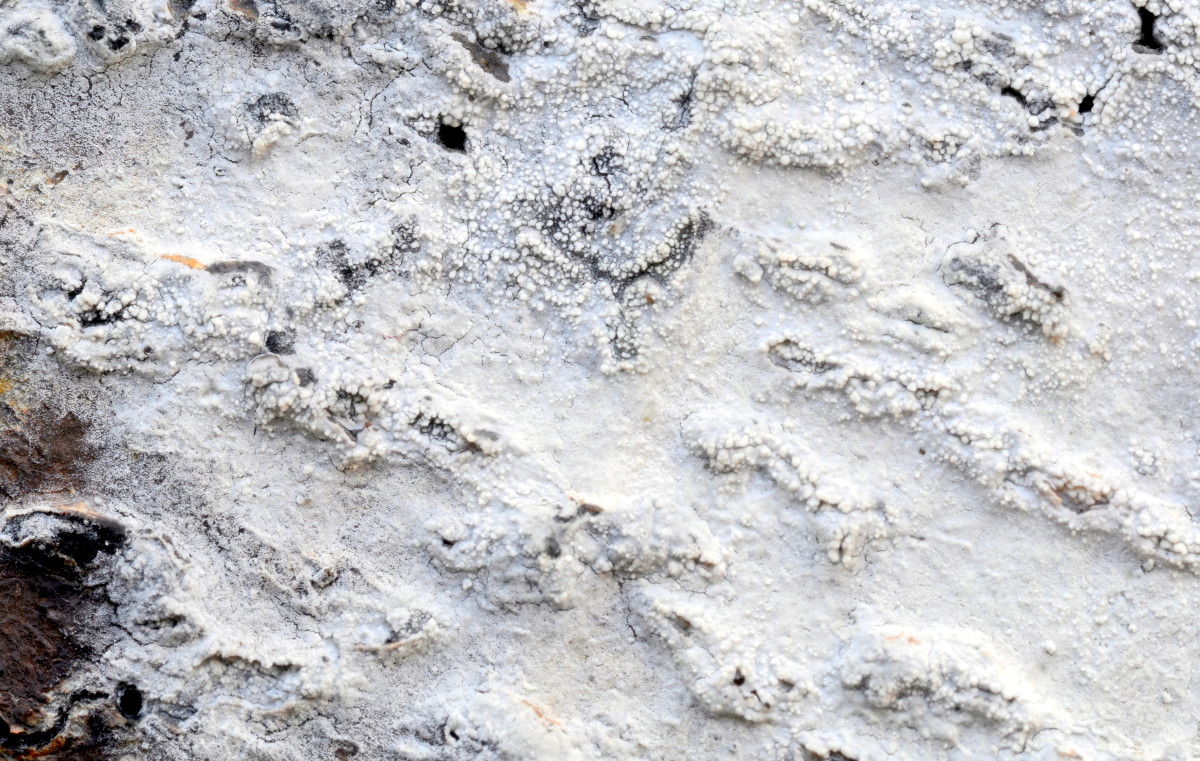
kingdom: Fungi
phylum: Basidiomycota
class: Agaricomycetes
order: Cantharellales
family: Hydnaceae
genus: Sistotrema
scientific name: Sistotrema brinkmannii
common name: bønnesporet kroneskorpe
